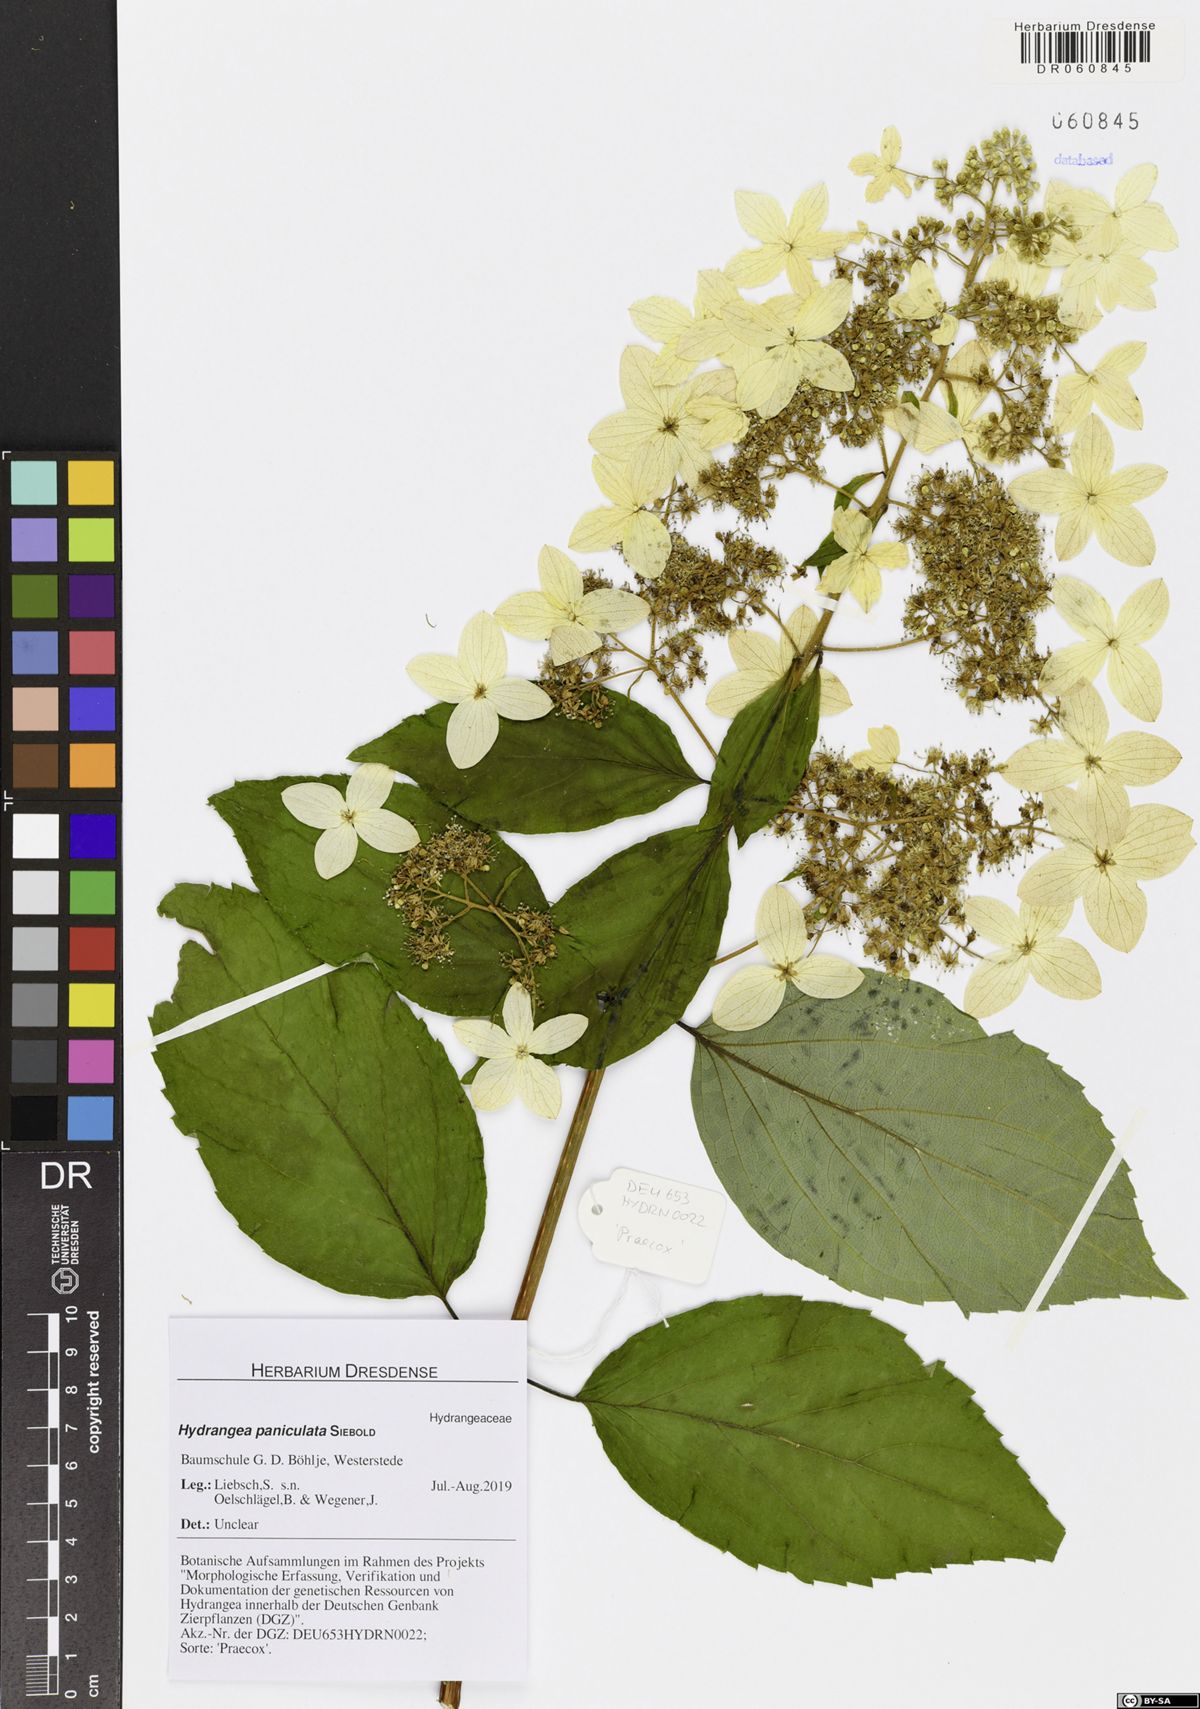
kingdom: Plantae
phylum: Tracheophyta
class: Magnoliopsida
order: Cornales
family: Hydrangeaceae
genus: Hydrangea
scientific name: Hydrangea paniculata
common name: Panicled hydrangea
